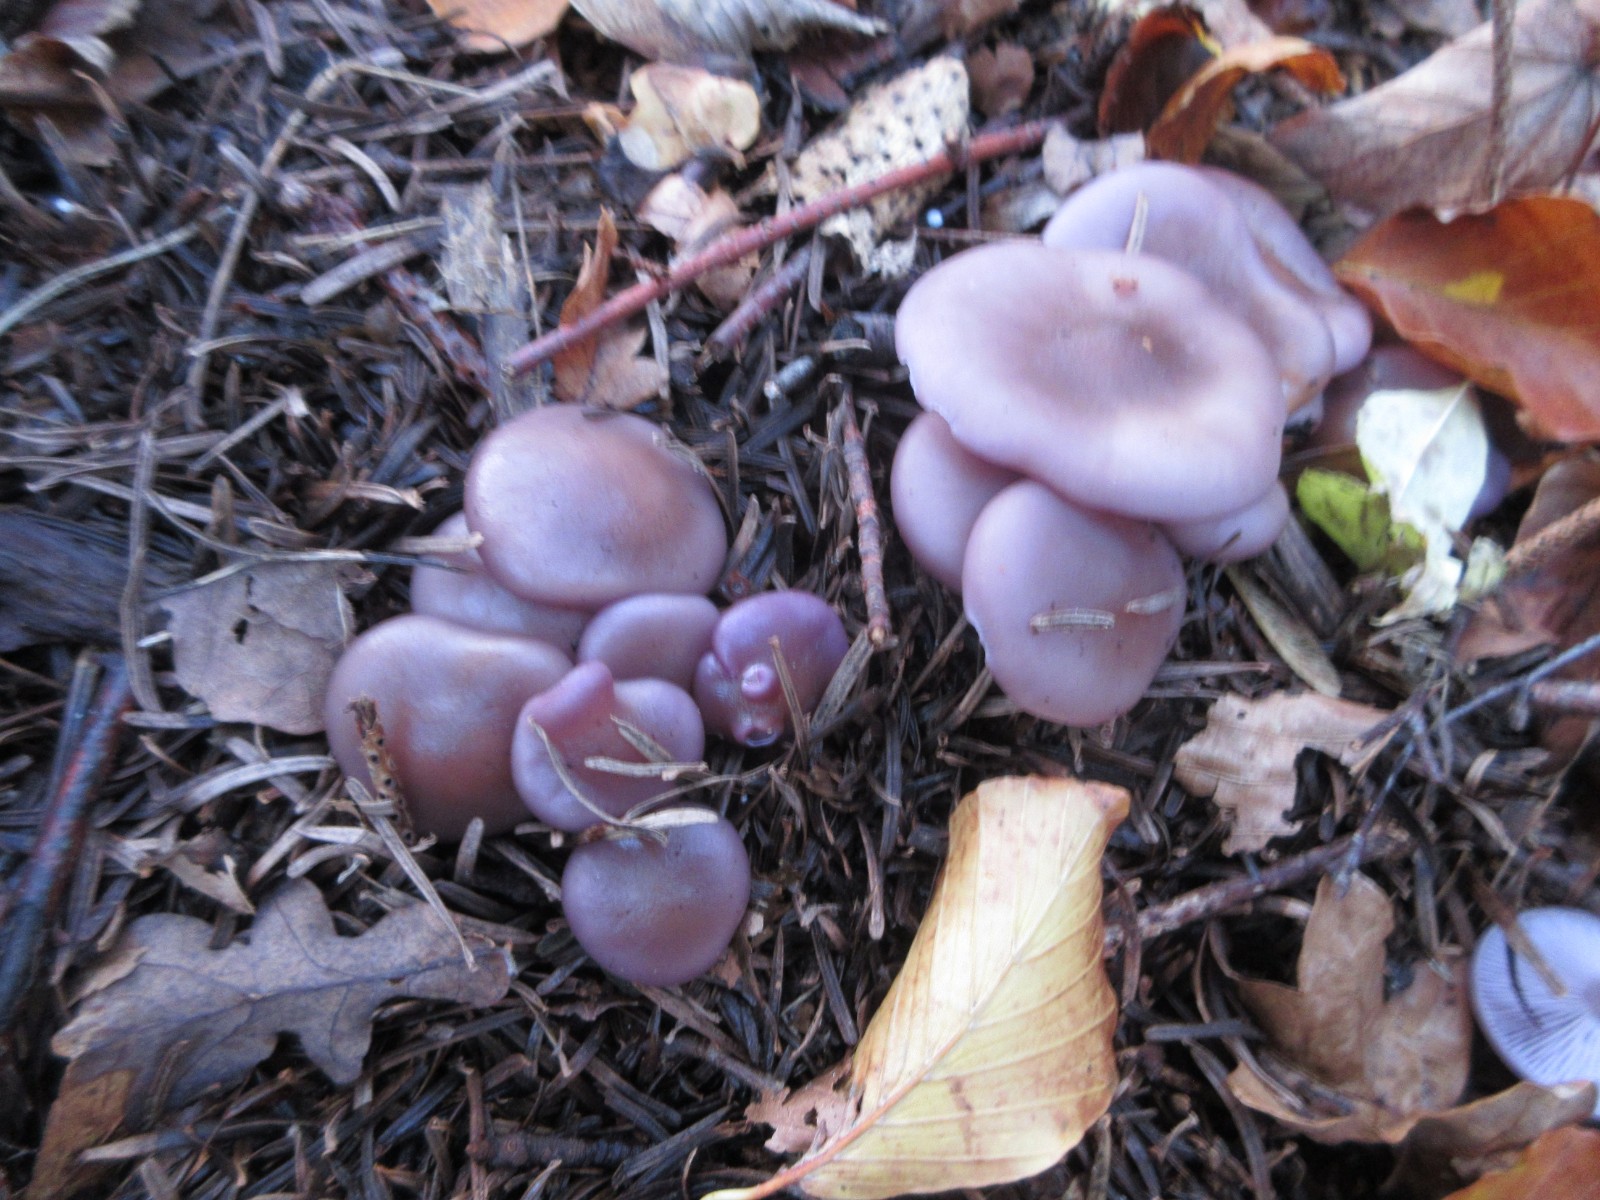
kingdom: Fungi
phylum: Basidiomycota
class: Agaricomycetes
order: Agaricales
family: Tricholomataceae
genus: Lepista
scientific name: Lepista lilacea
